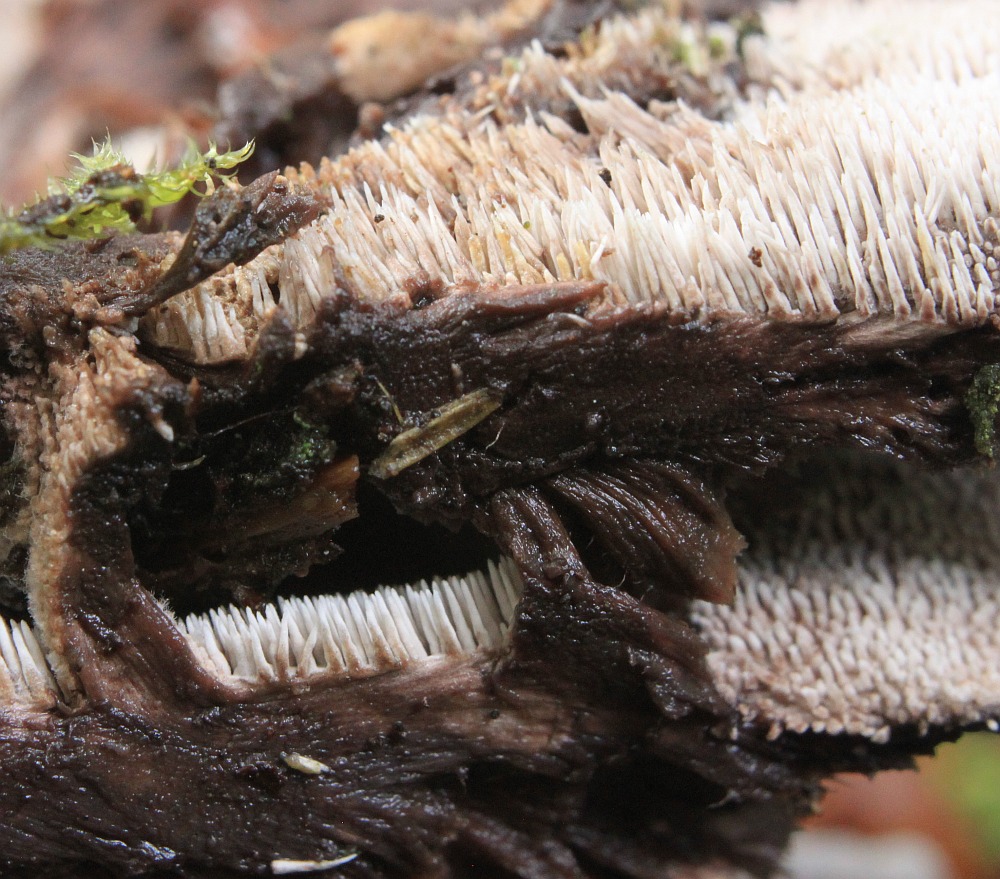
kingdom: Fungi
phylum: Basidiomycota
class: Agaricomycetes
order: Thelephorales
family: Thelephoraceae
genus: Phellodon
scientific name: Phellodon tomentosus
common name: vellugtende duftpigsvamp
